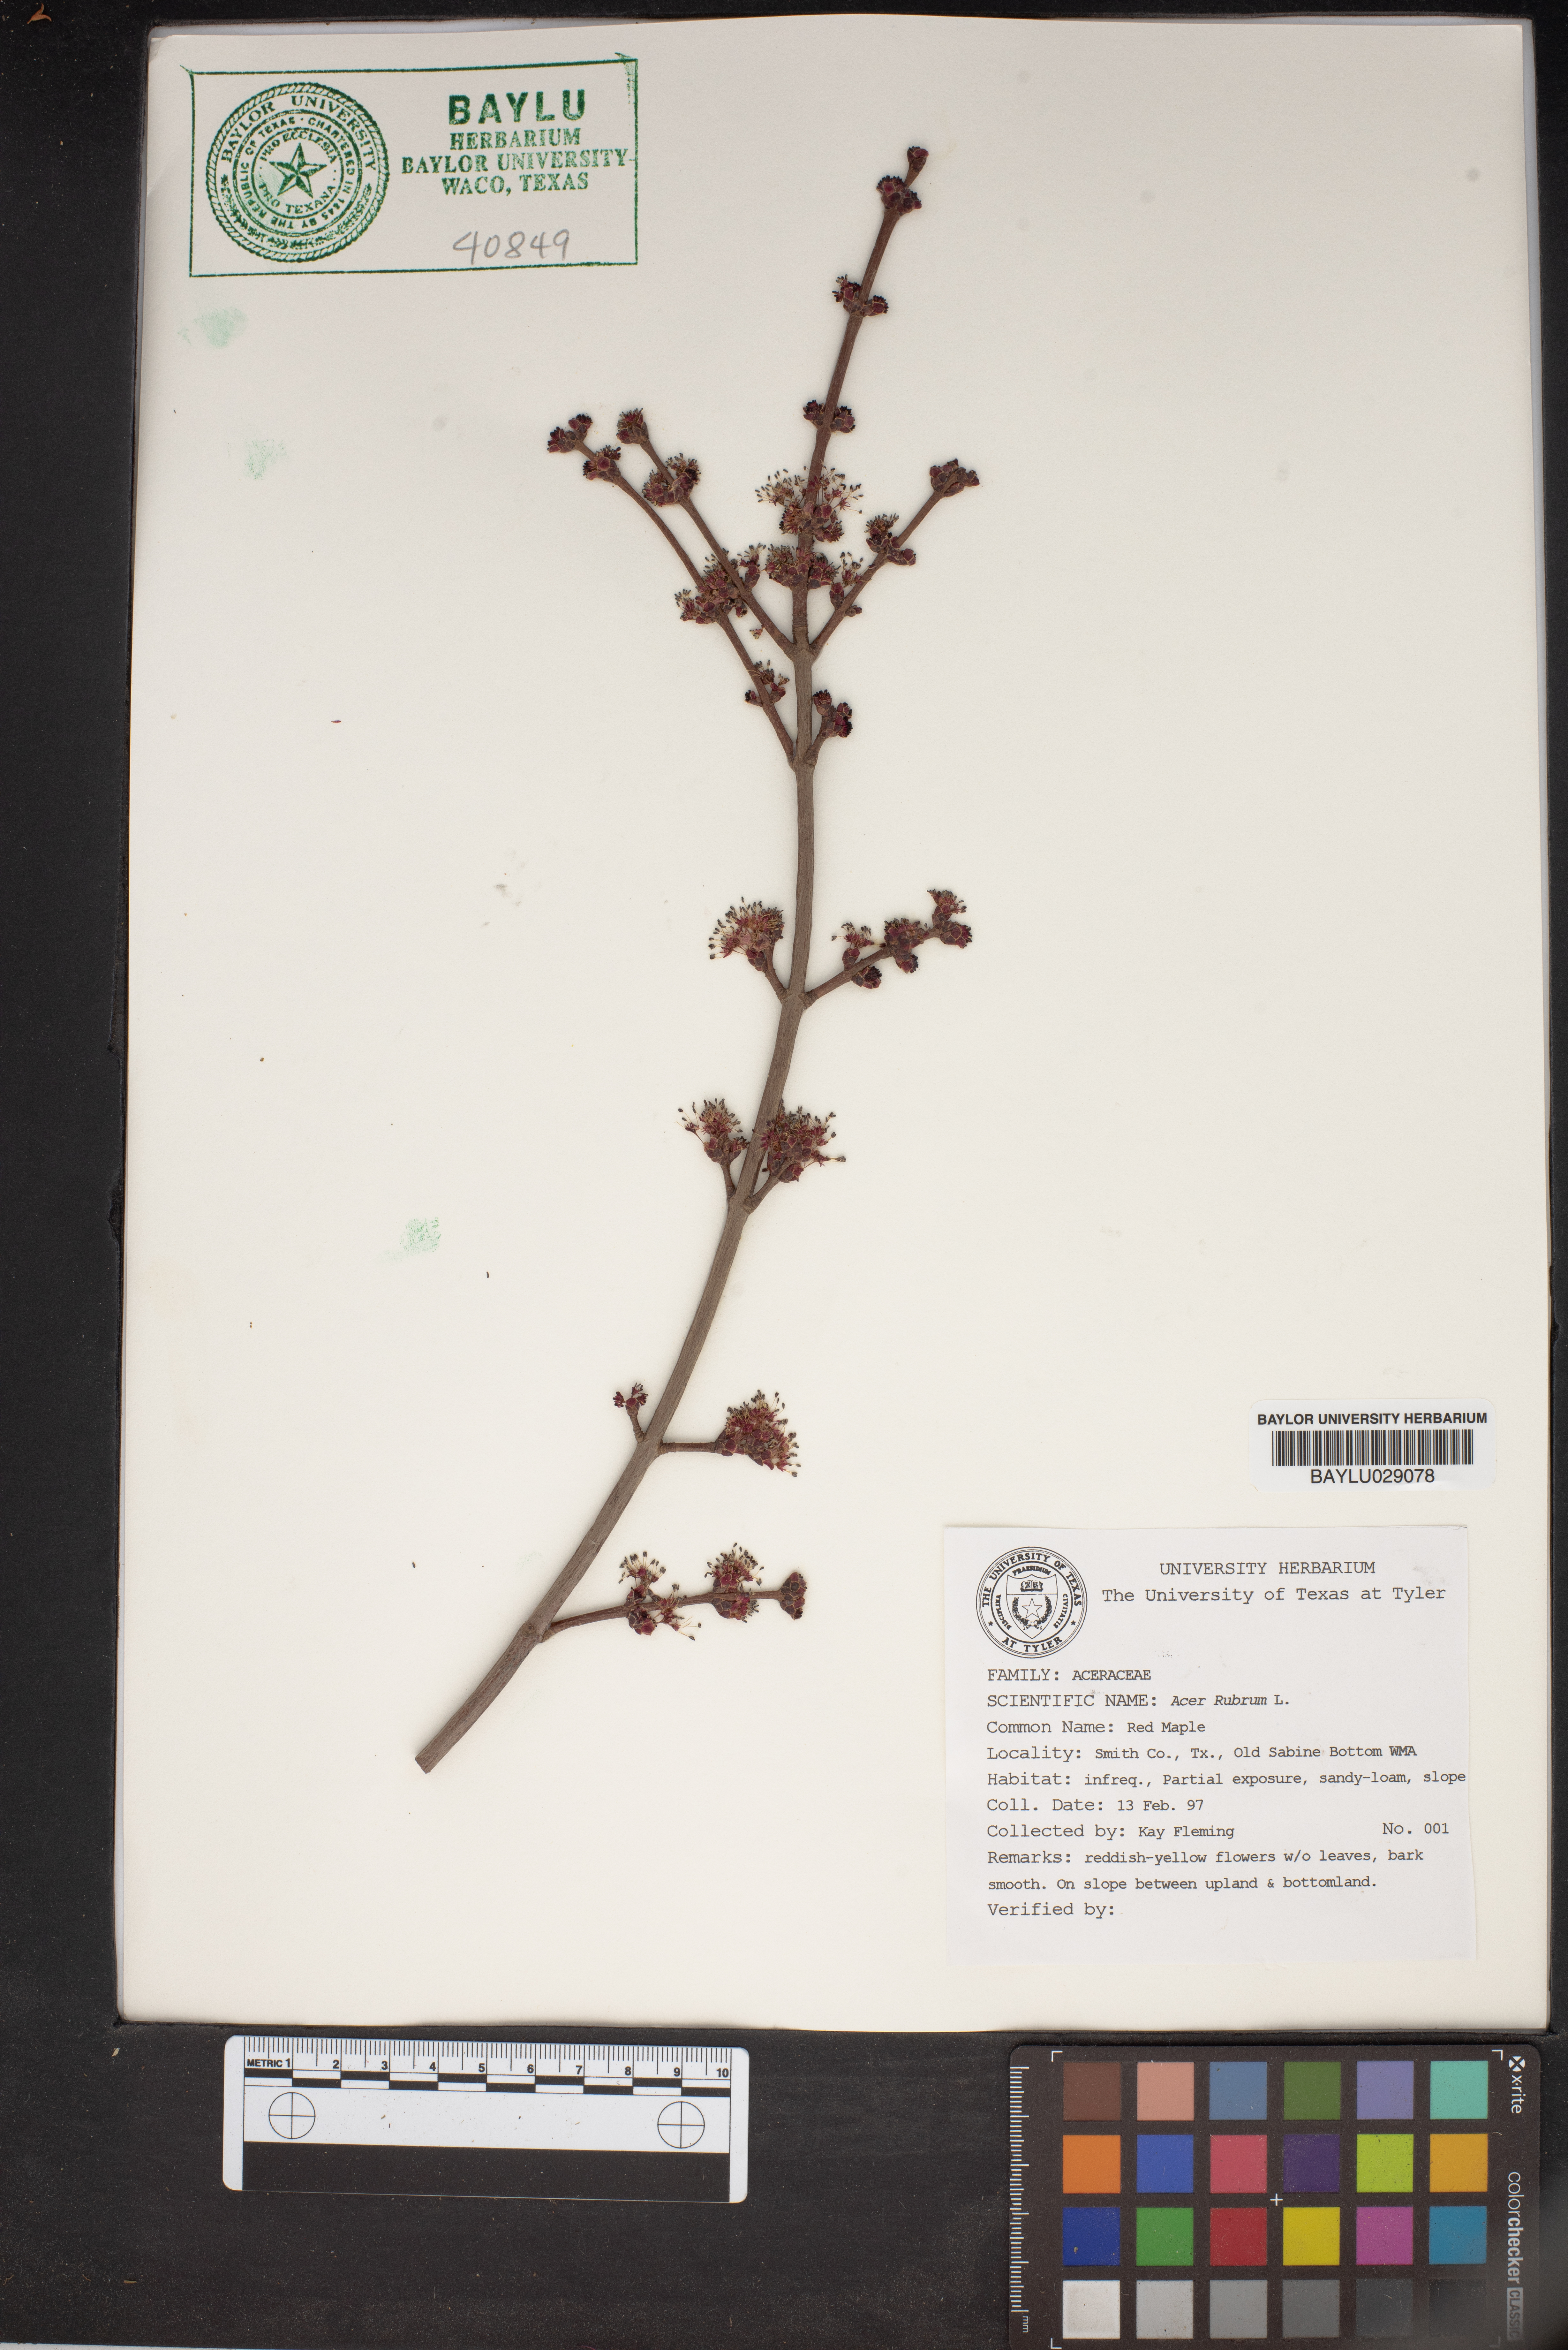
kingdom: Plantae
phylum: Tracheophyta
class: Magnoliopsida
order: Sapindales
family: Sapindaceae
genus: Acer
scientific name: Acer rubrum
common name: Red maple
